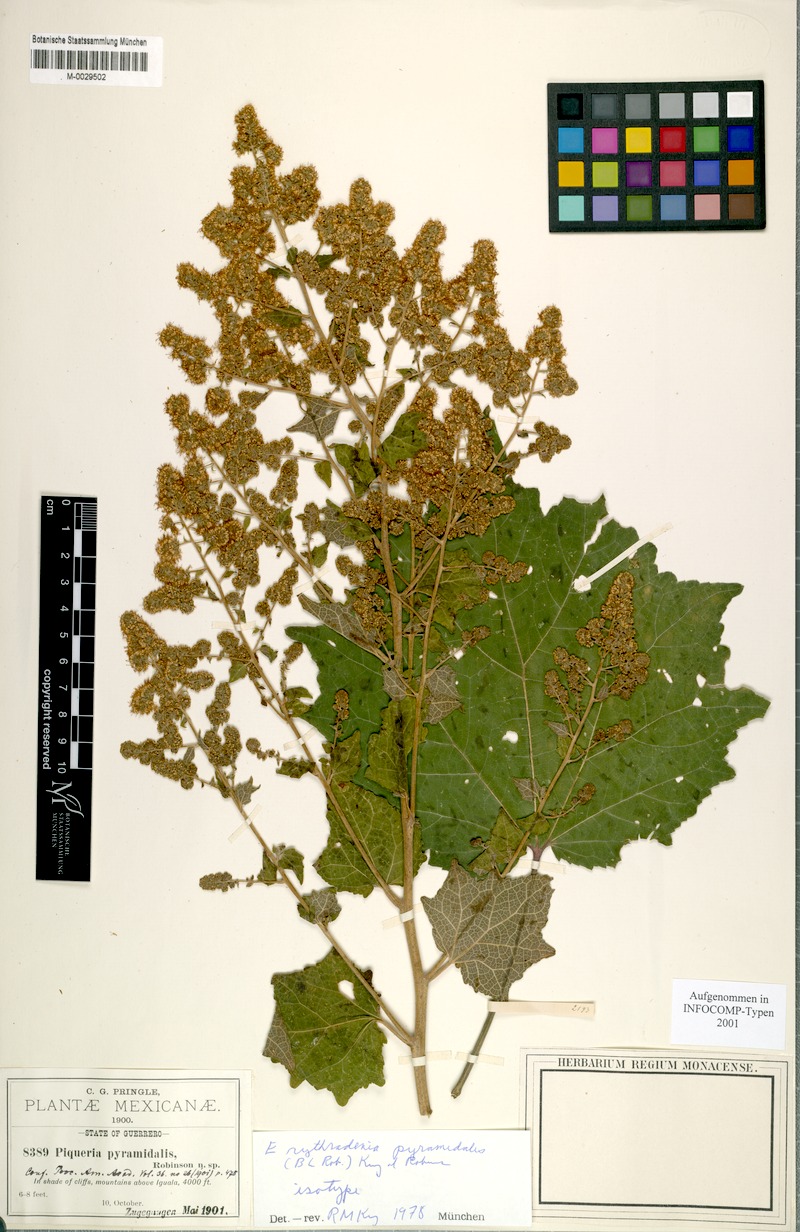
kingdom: Plantae
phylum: Tracheophyta
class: Magnoliopsida
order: Asterales
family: Asteraceae
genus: Decachaeta
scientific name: Decachaeta pyramidalis
